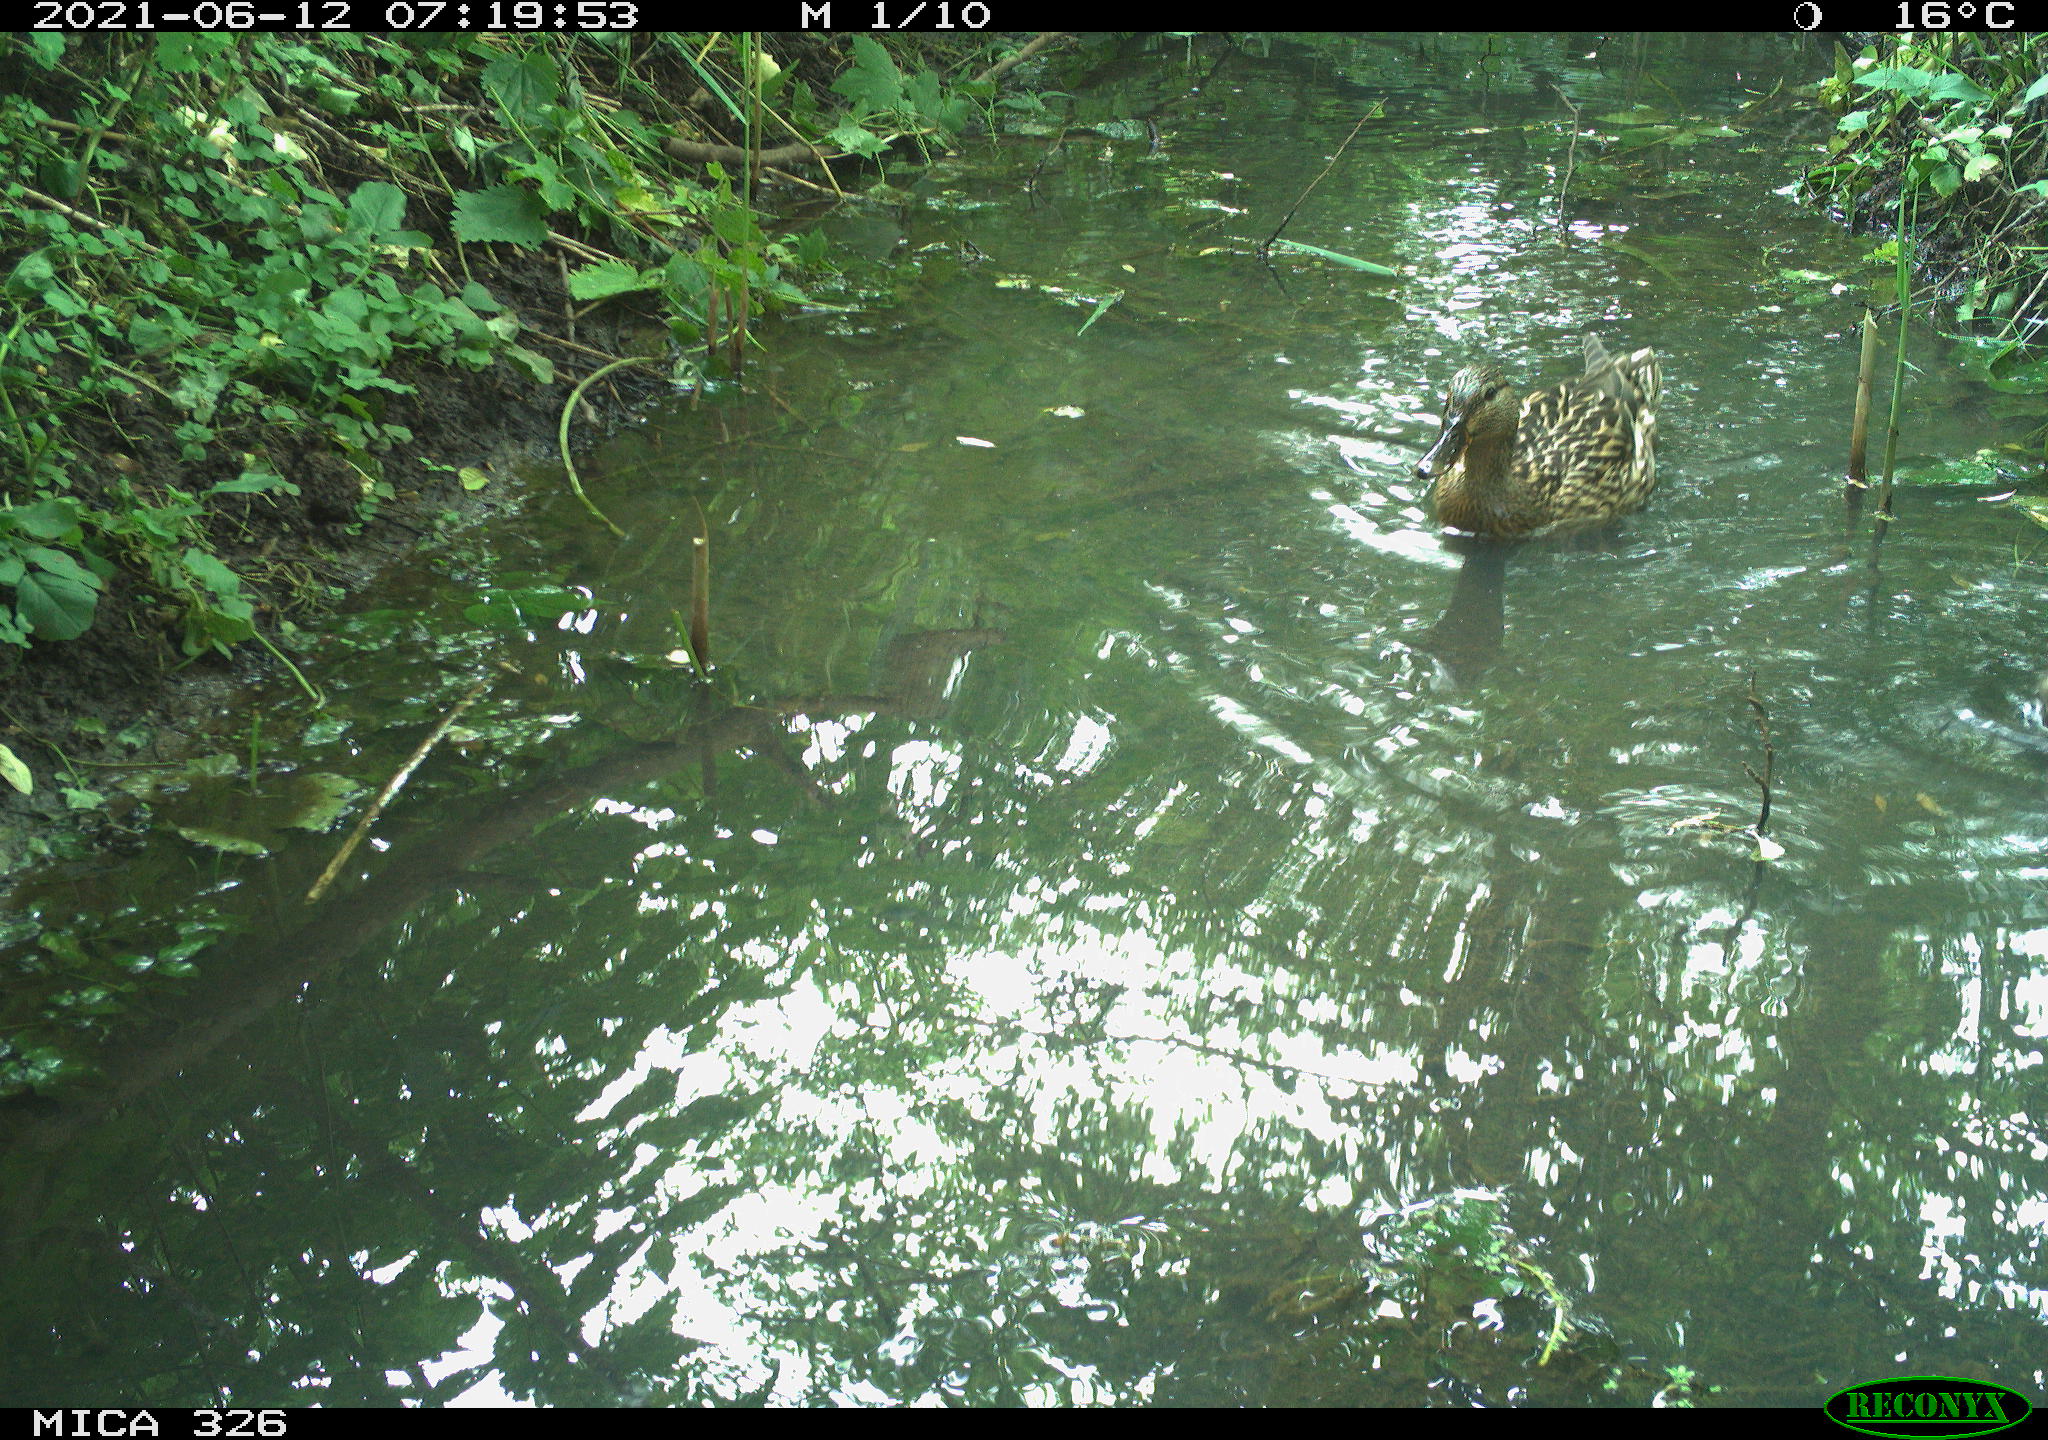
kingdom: Animalia
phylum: Chordata
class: Aves
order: Anseriformes
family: Anatidae
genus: Anas
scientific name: Anas platyrhynchos
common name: Mallard
